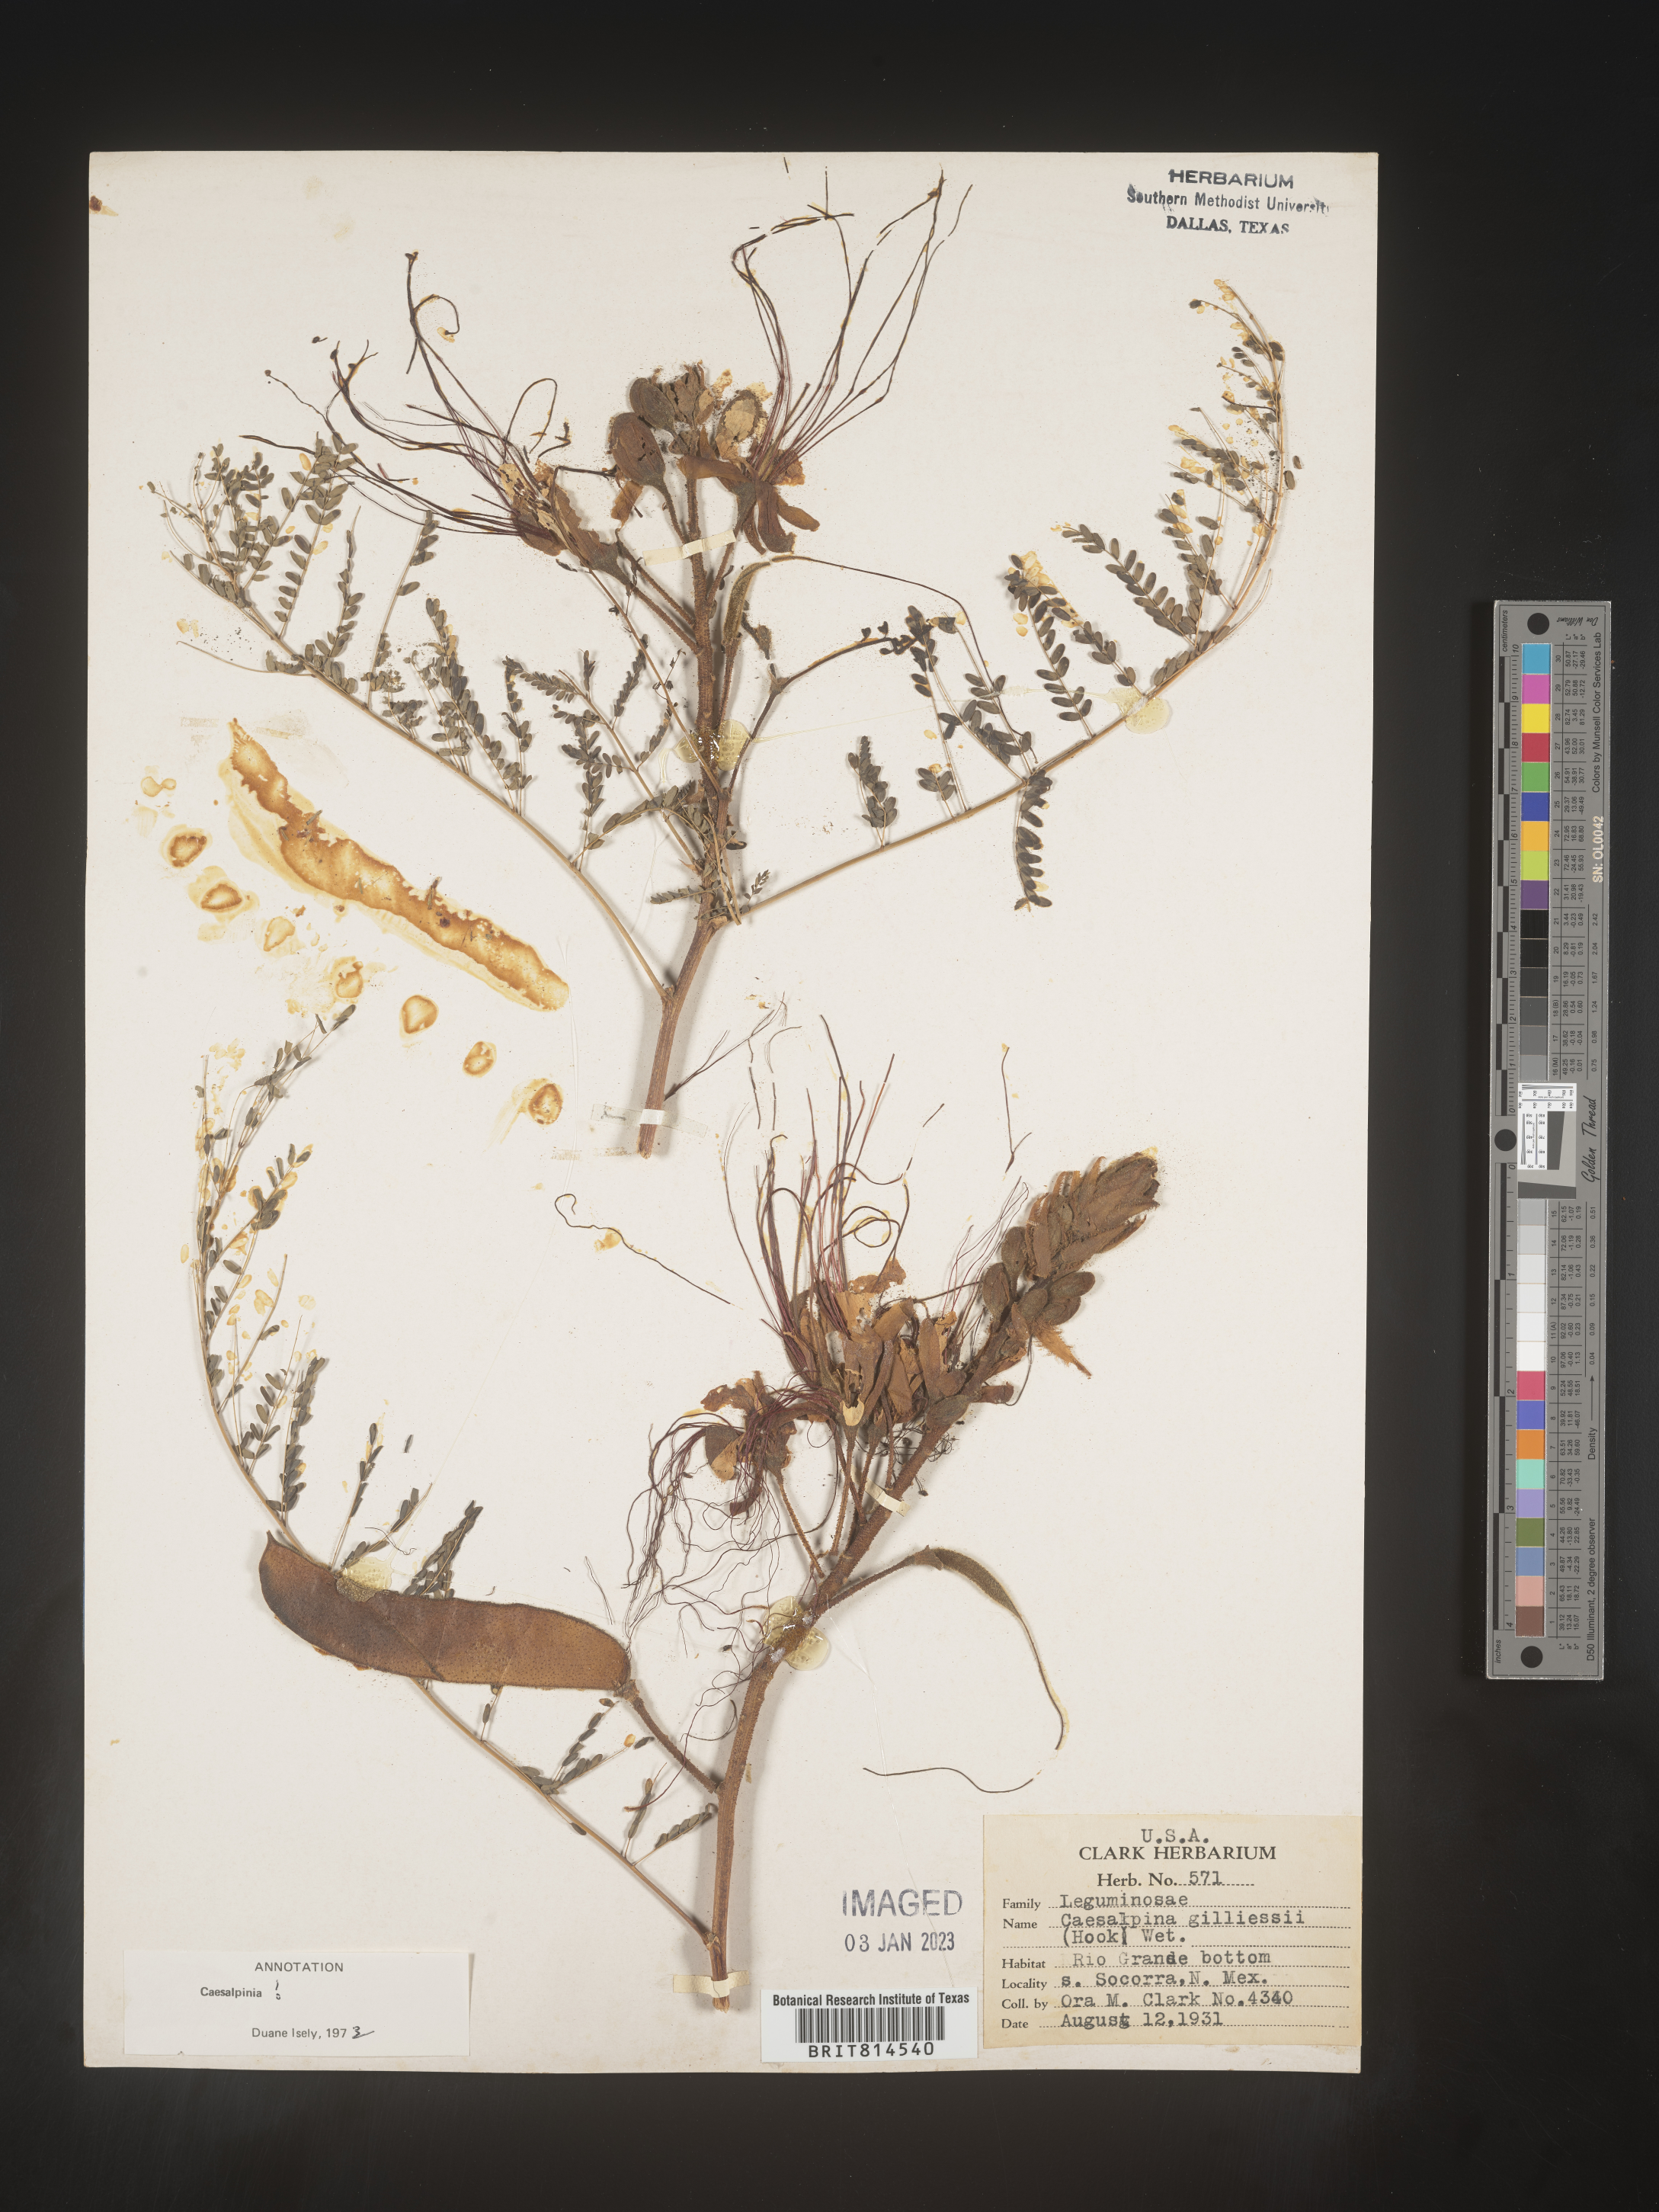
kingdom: Plantae
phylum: Tracheophyta
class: Magnoliopsida
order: Fabales
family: Fabaceae
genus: Caesalpinia
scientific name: Caesalpinia
